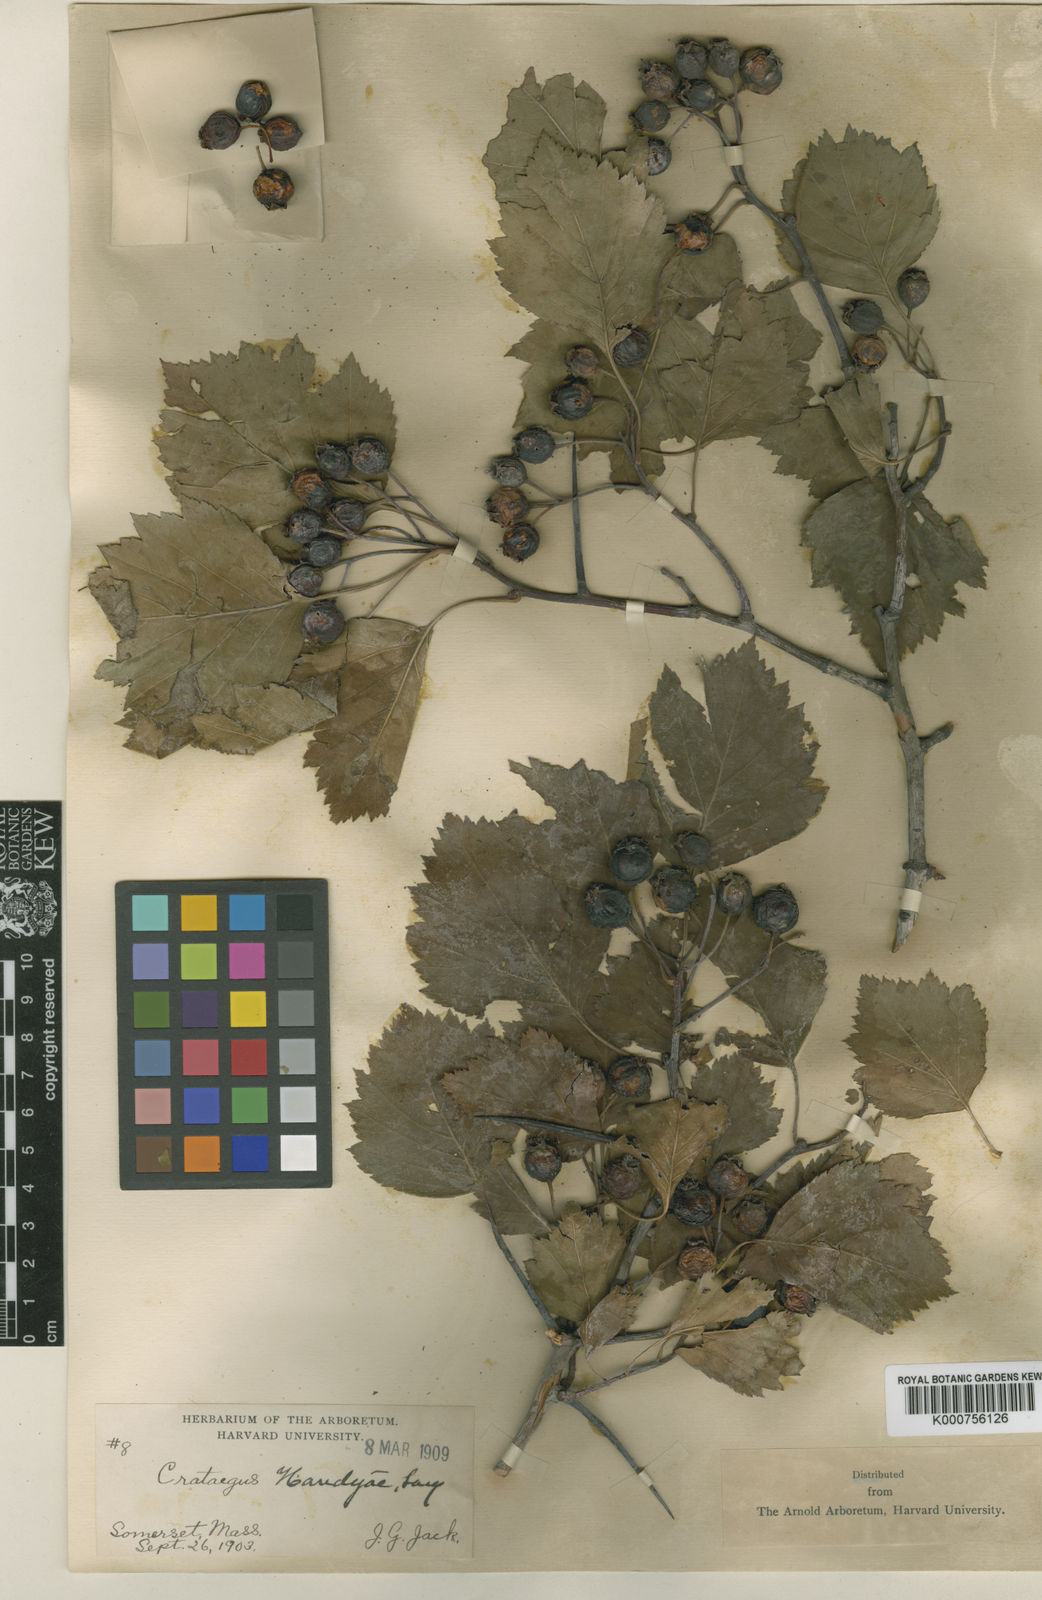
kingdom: Plantae
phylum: Tracheophyta
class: Magnoliopsida
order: Rosales
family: Rosaceae
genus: Crataegus
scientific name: Crataegus handyae
